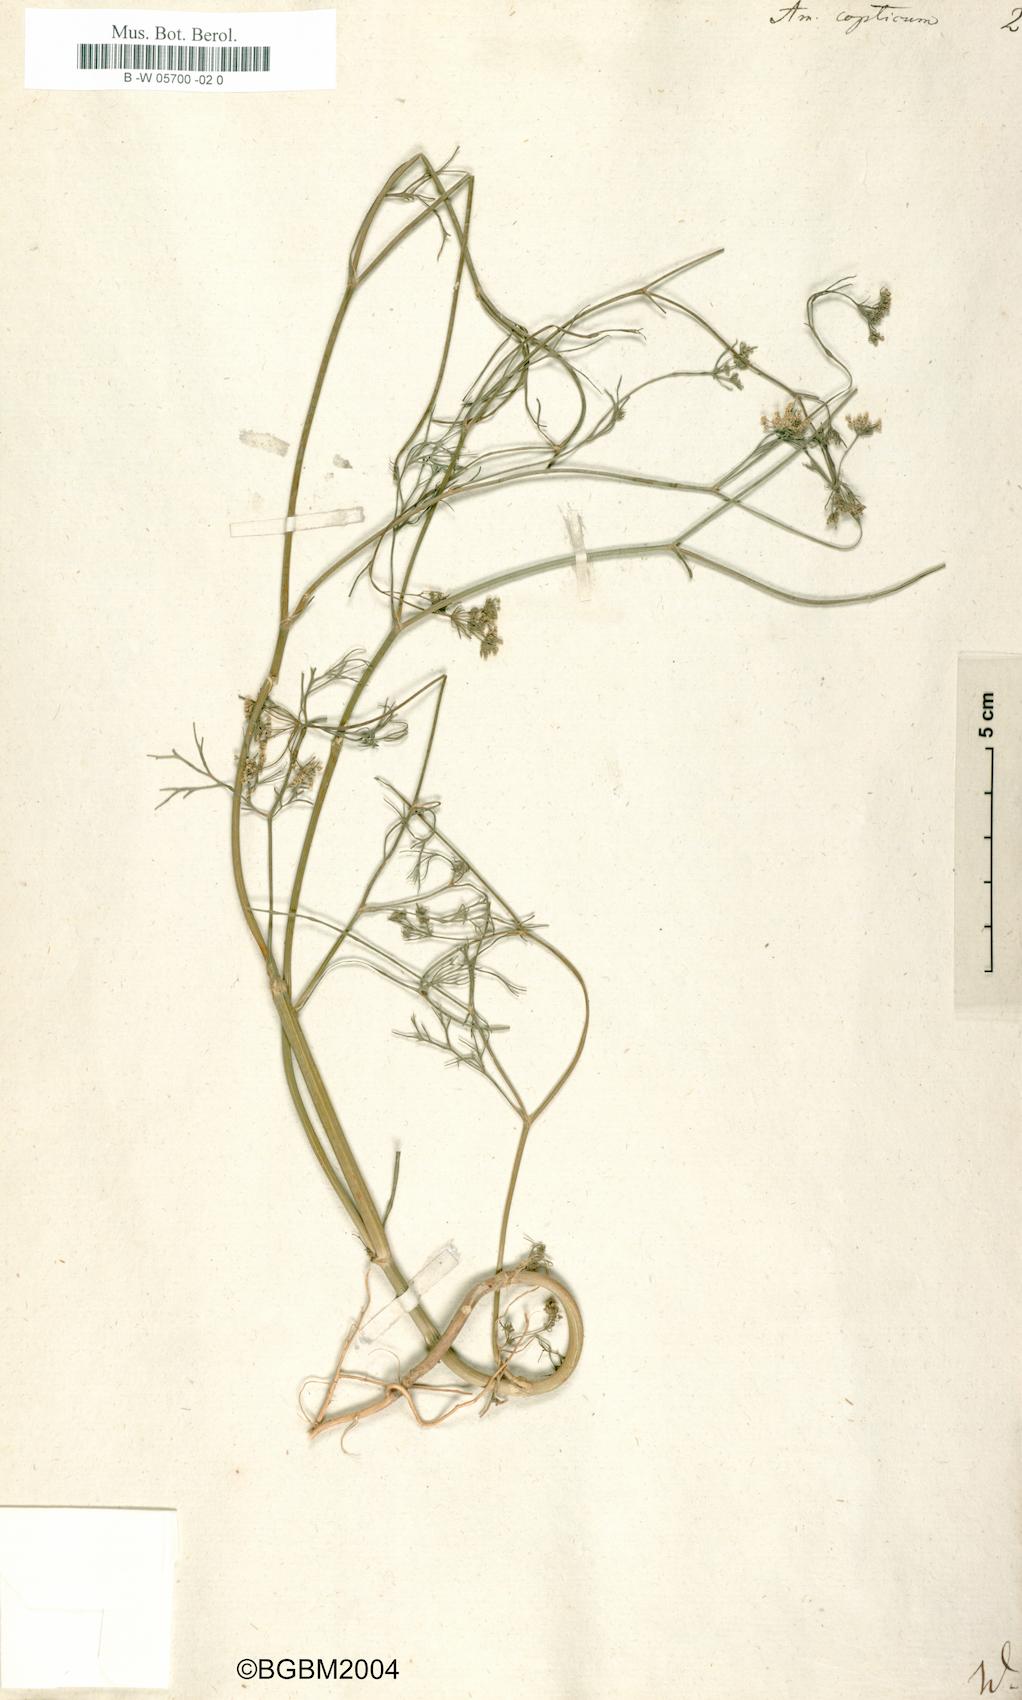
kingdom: Plantae
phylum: Tracheophyta
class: Magnoliopsida
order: Apiales
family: Apiaceae
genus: Trachyspermum
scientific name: Trachyspermum ammi
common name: Ajowan
